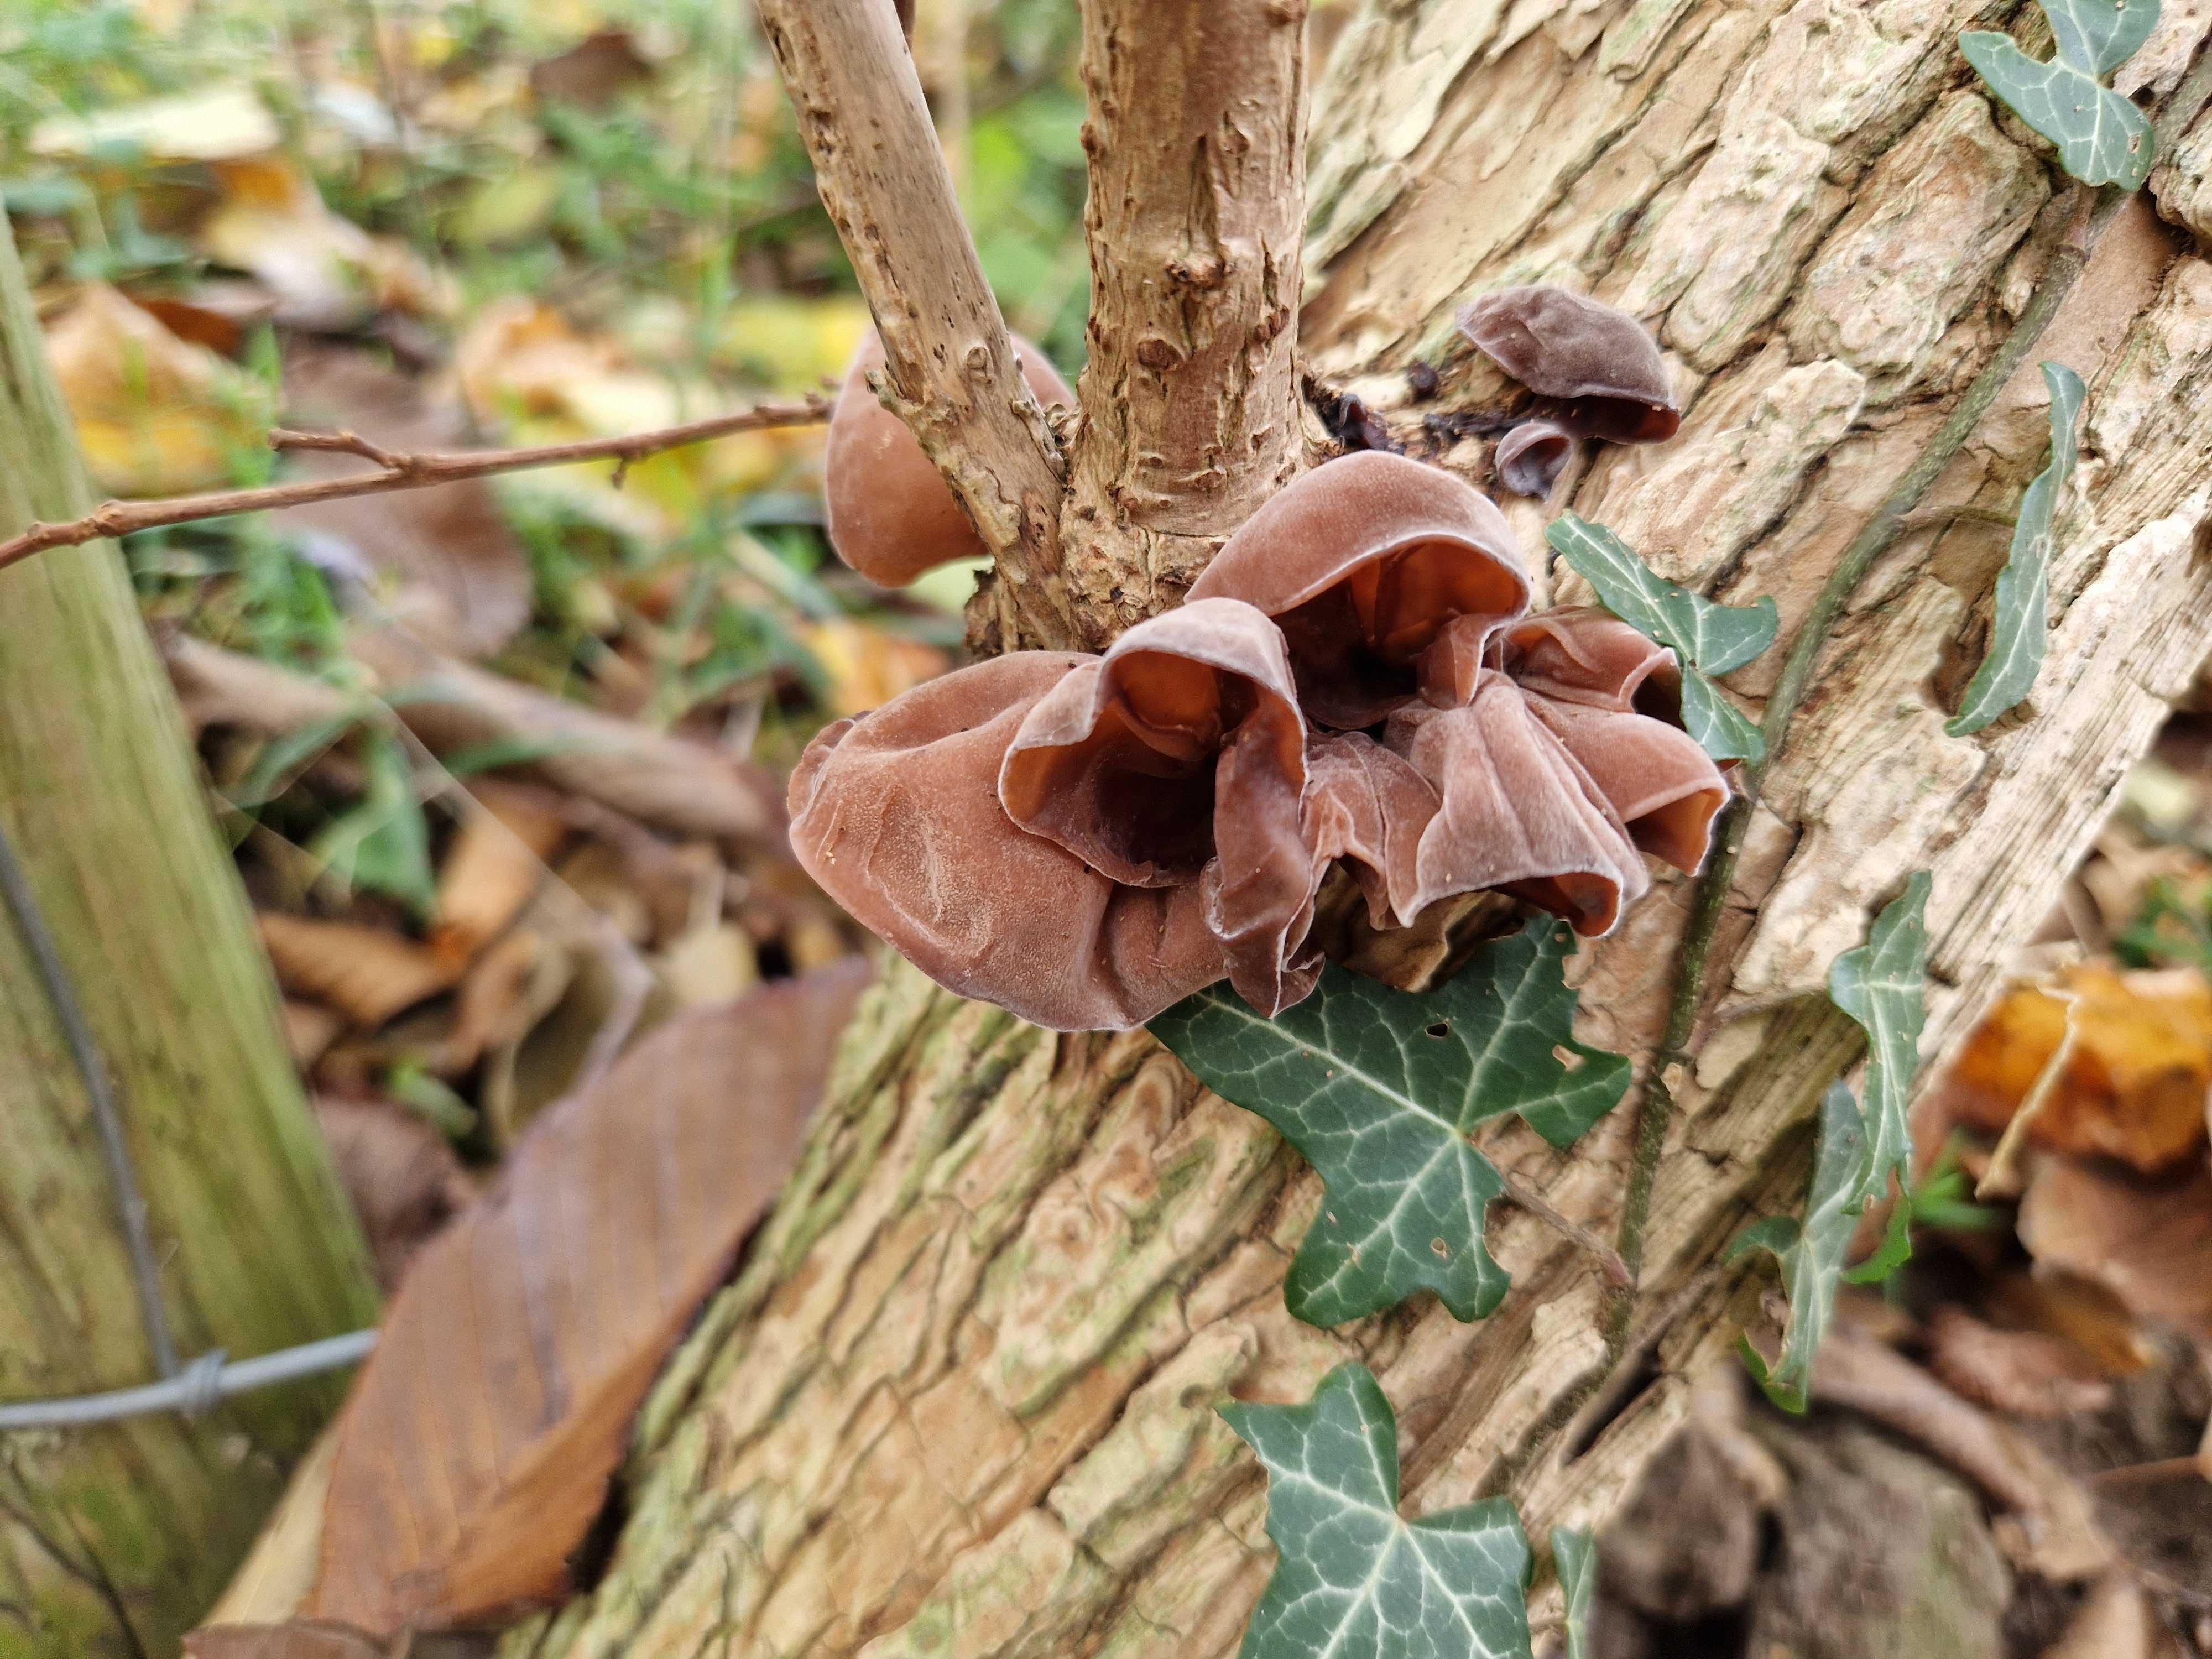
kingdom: Fungi
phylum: Basidiomycota
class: Agaricomycetes
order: Auriculariales
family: Auriculariaceae
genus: Auricularia
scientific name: Auricularia auricula-judae
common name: almindelig judasøre
